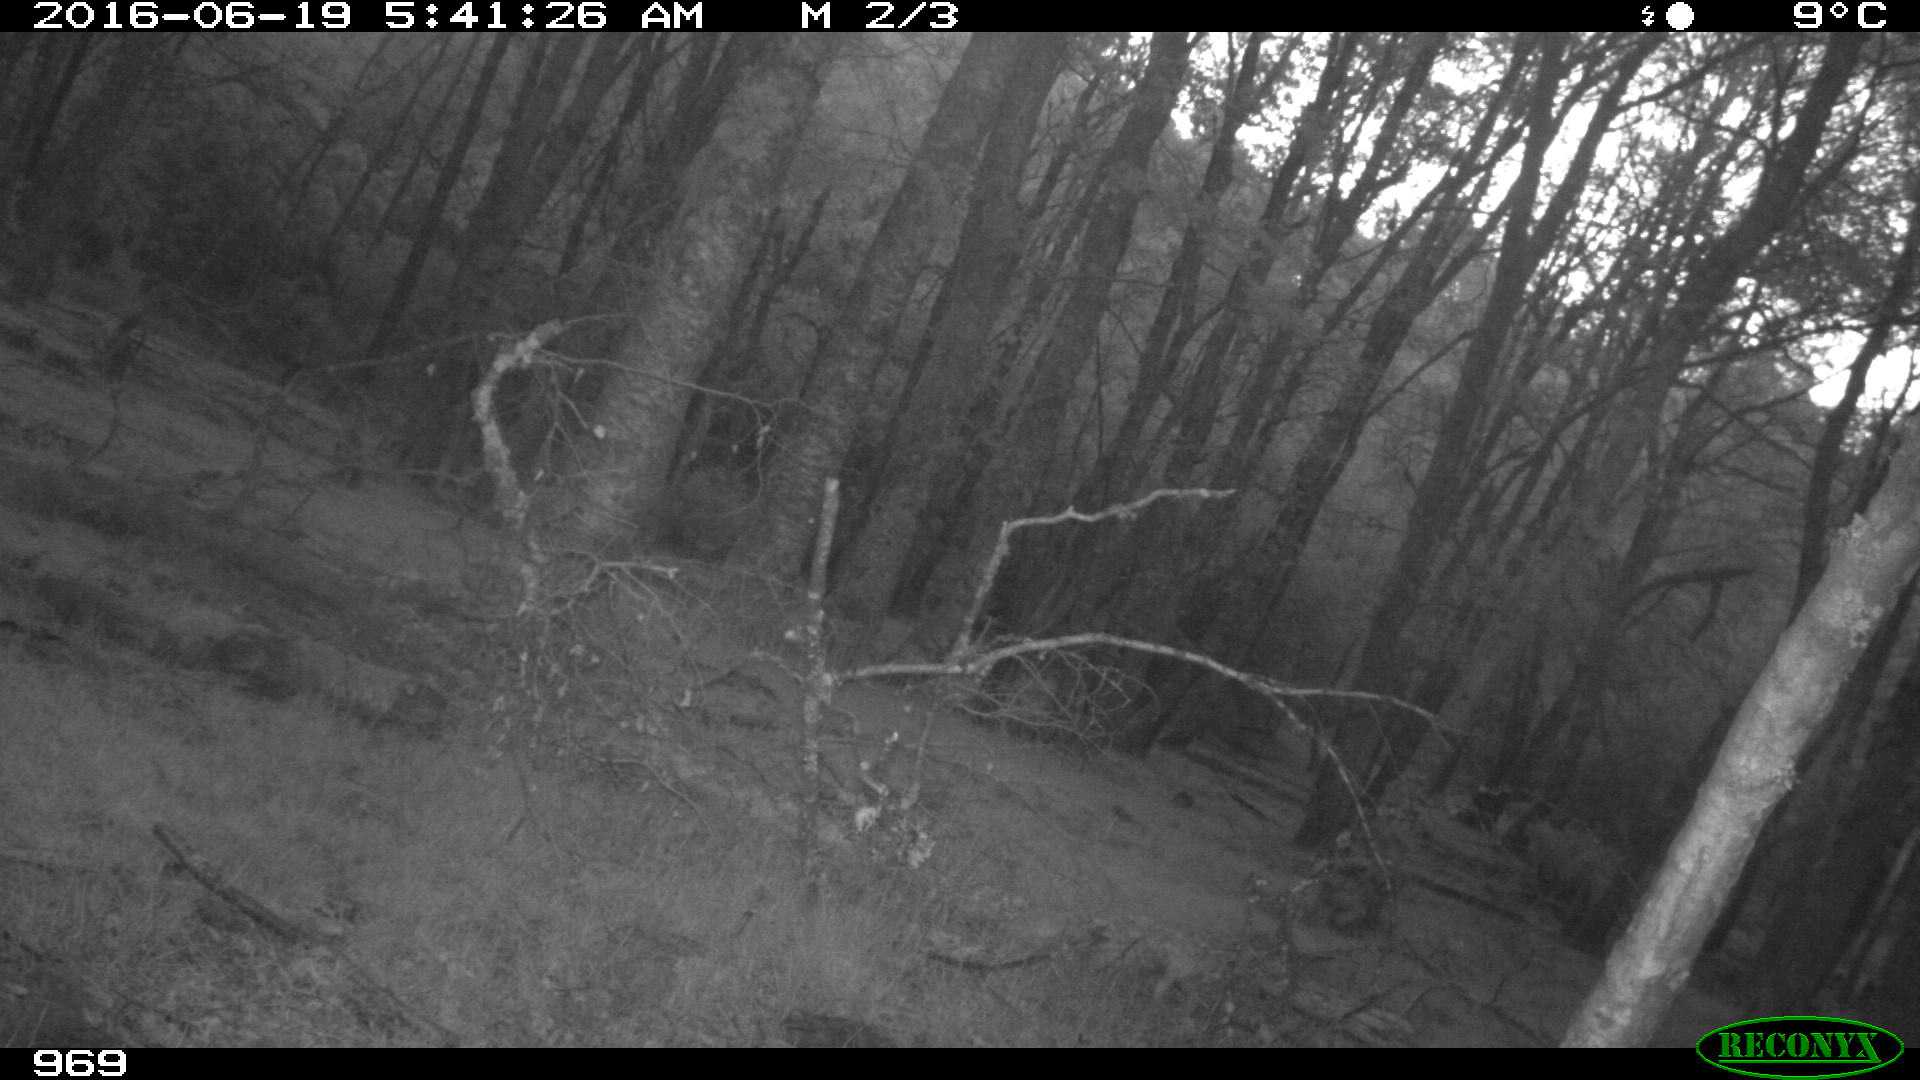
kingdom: Animalia
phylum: Chordata
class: Mammalia
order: Artiodactyla
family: Cervidae
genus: Capreolus
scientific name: Capreolus capreolus
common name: Western roe deer
